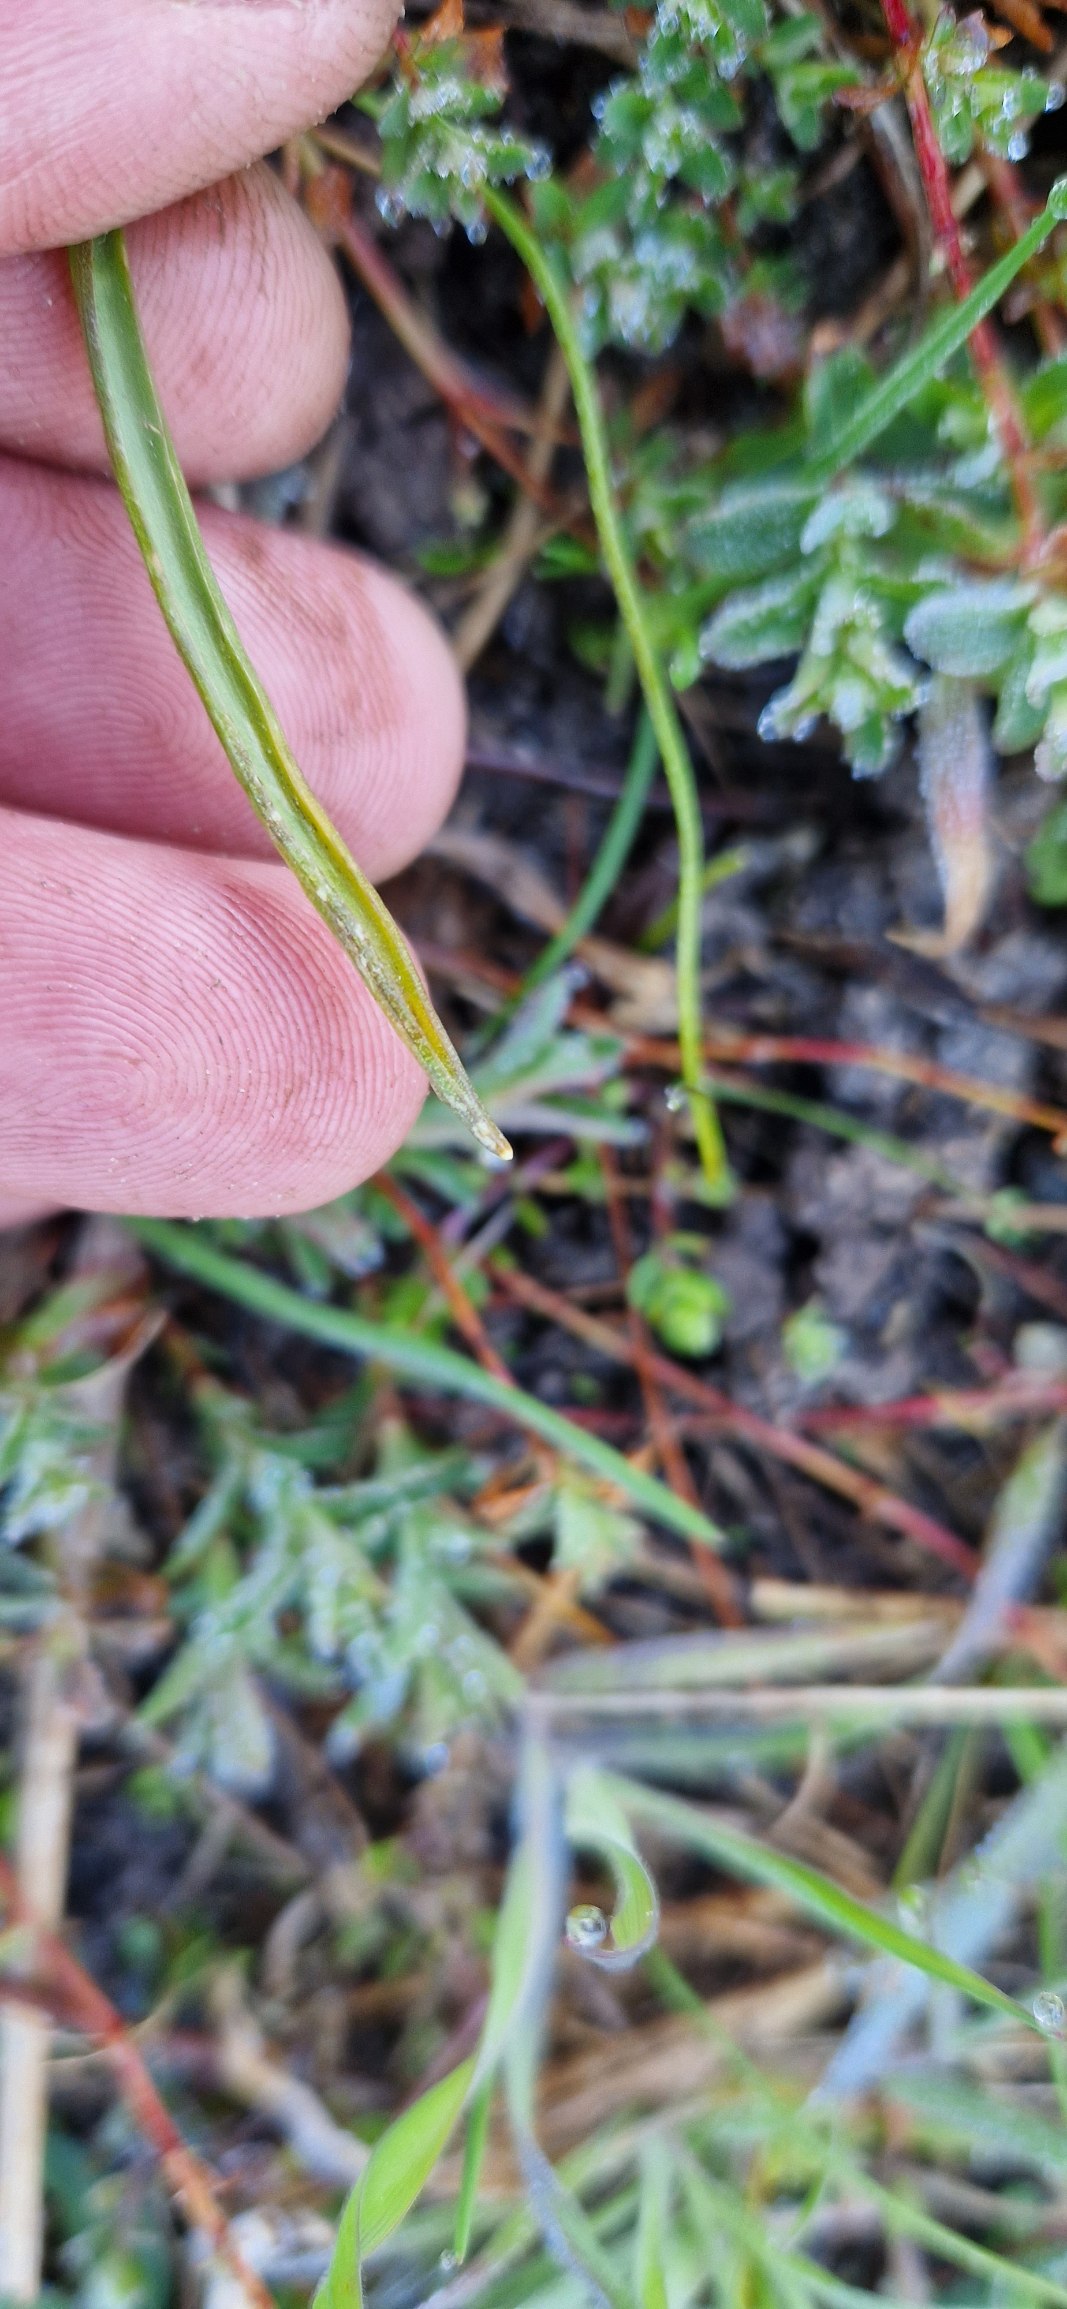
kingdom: Plantae
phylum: Tracheophyta
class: Liliopsida
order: Liliales
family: Liliaceae
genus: Gagea
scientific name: Gagea pratensis
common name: Eng-guldstjerne
